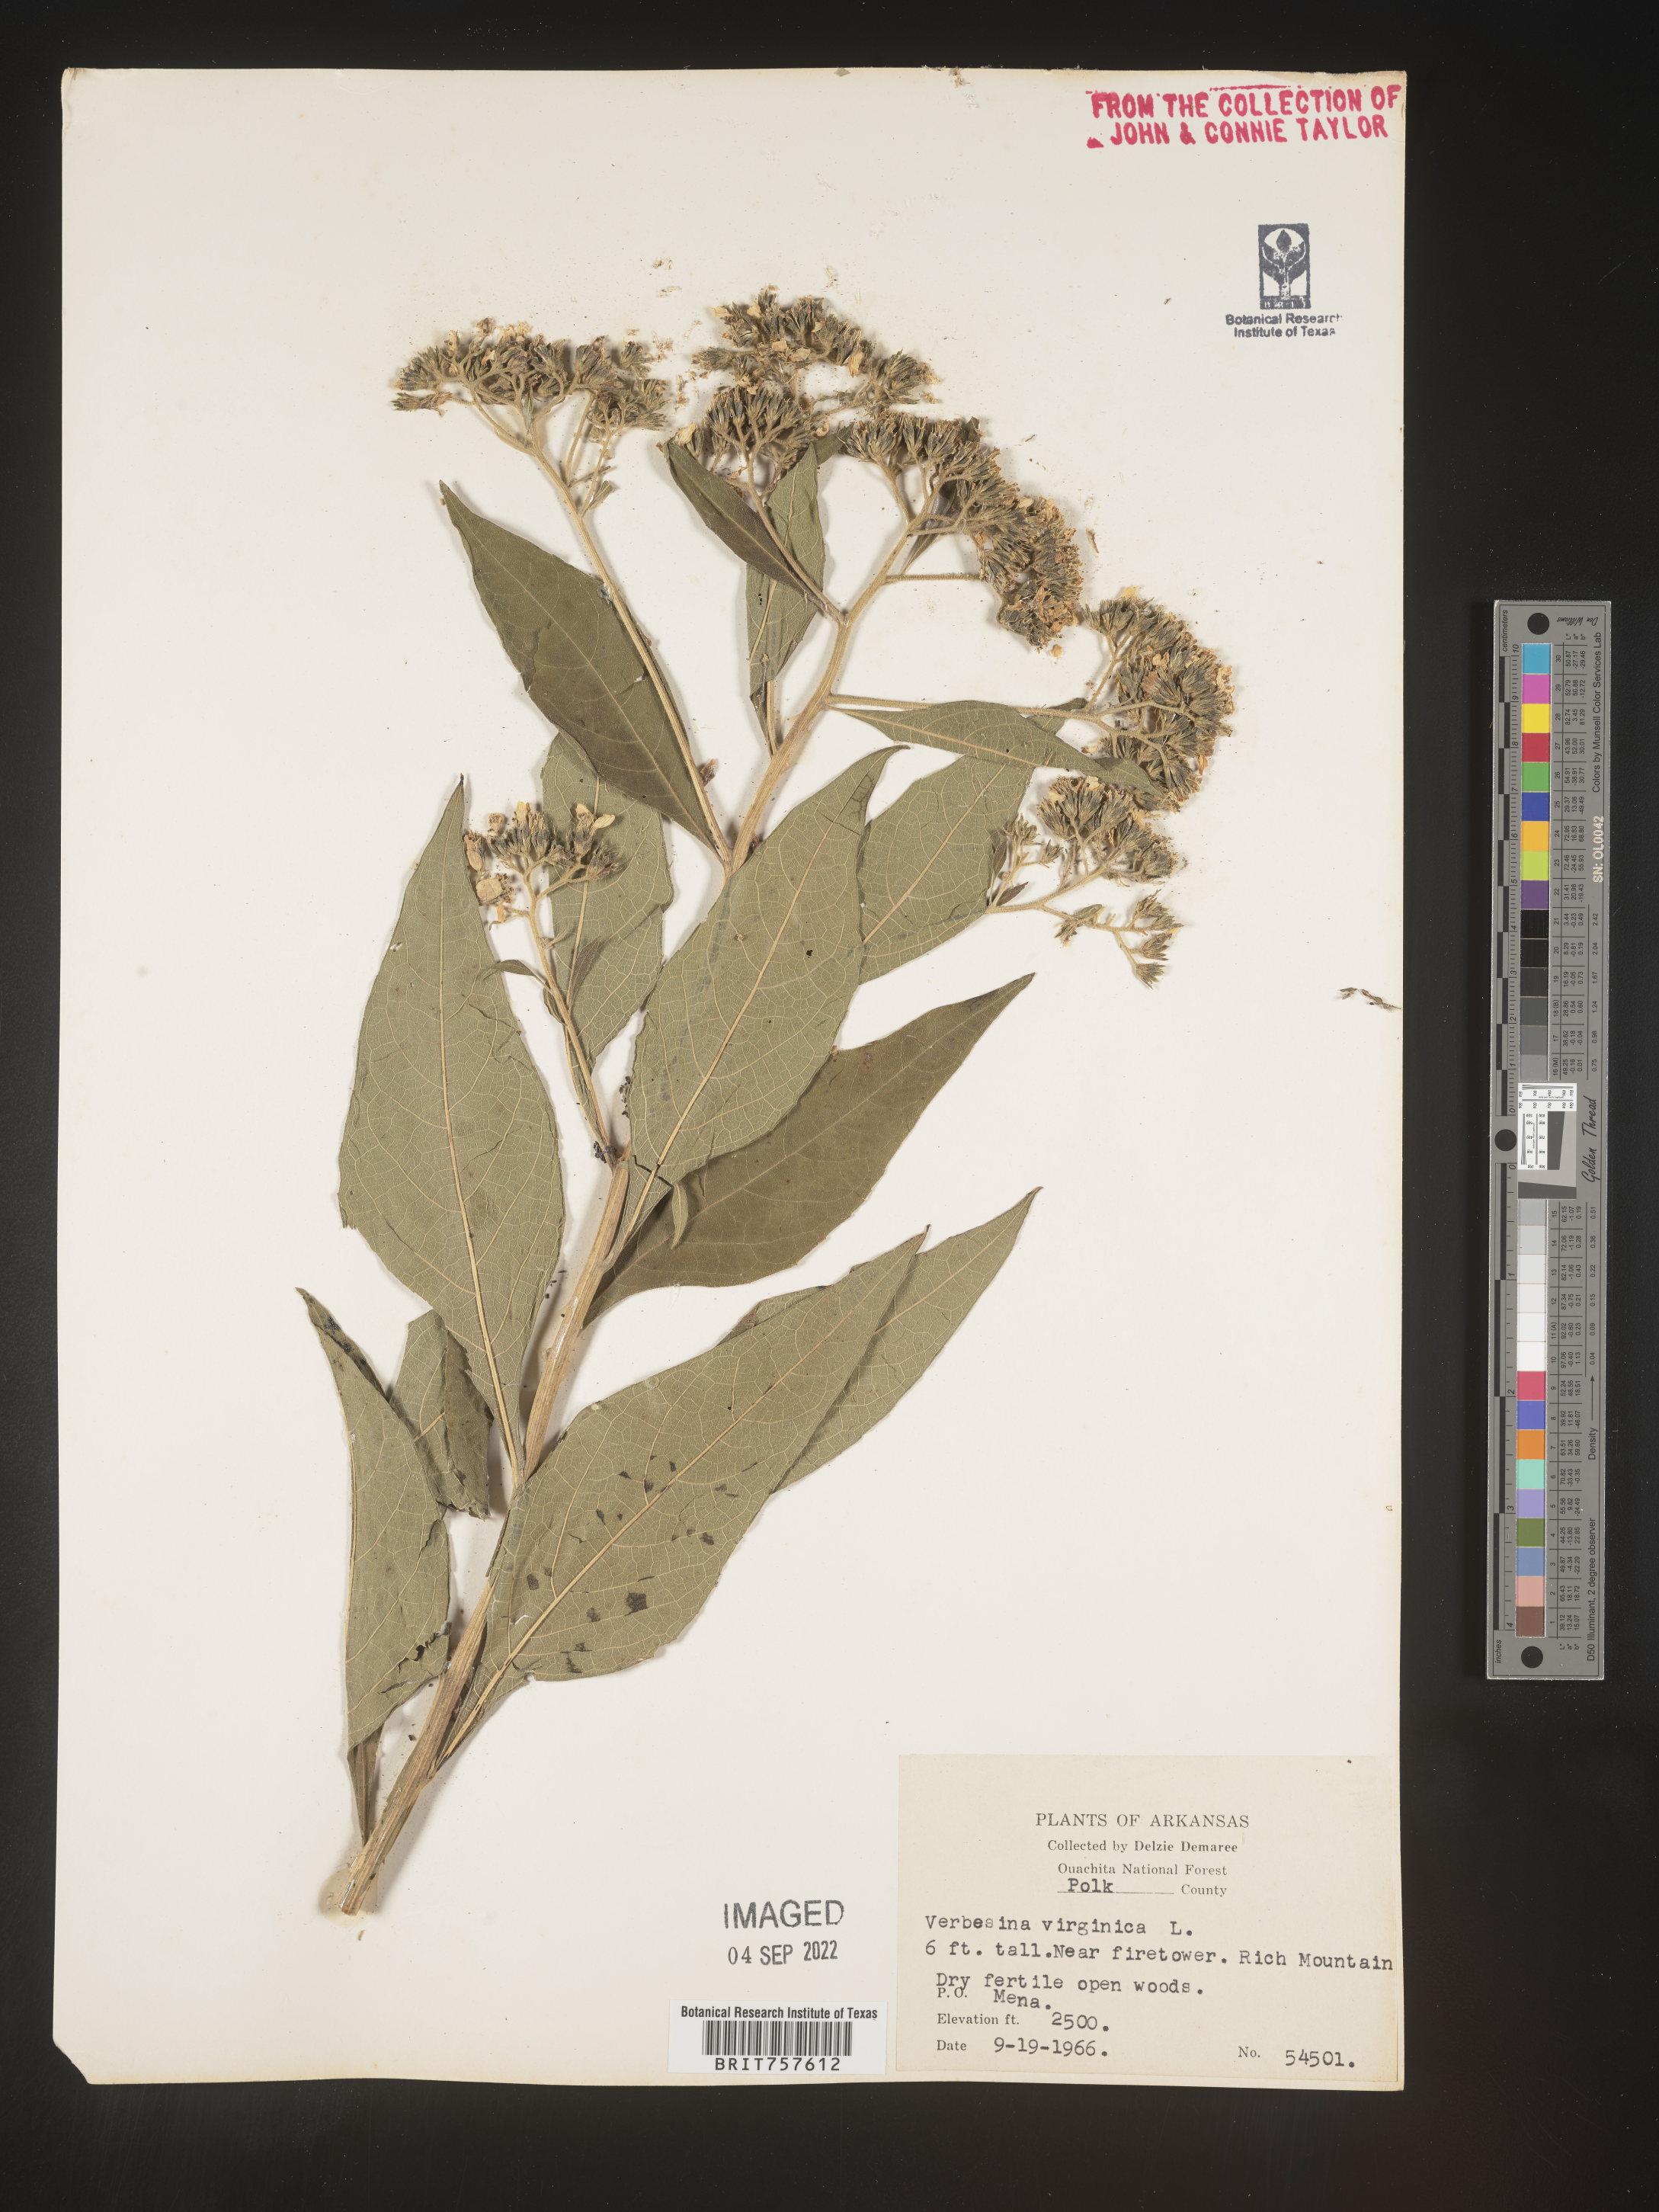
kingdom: Plantae
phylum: Tracheophyta
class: Magnoliopsida
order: Asterales
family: Asteraceae
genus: Verbesina
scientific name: Verbesina virginica
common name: Frostweed
